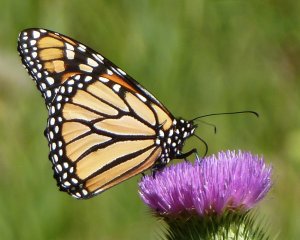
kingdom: Animalia
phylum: Arthropoda
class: Insecta
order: Lepidoptera
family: Nymphalidae
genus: Danaus
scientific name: Danaus plexippus
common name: Monarch
